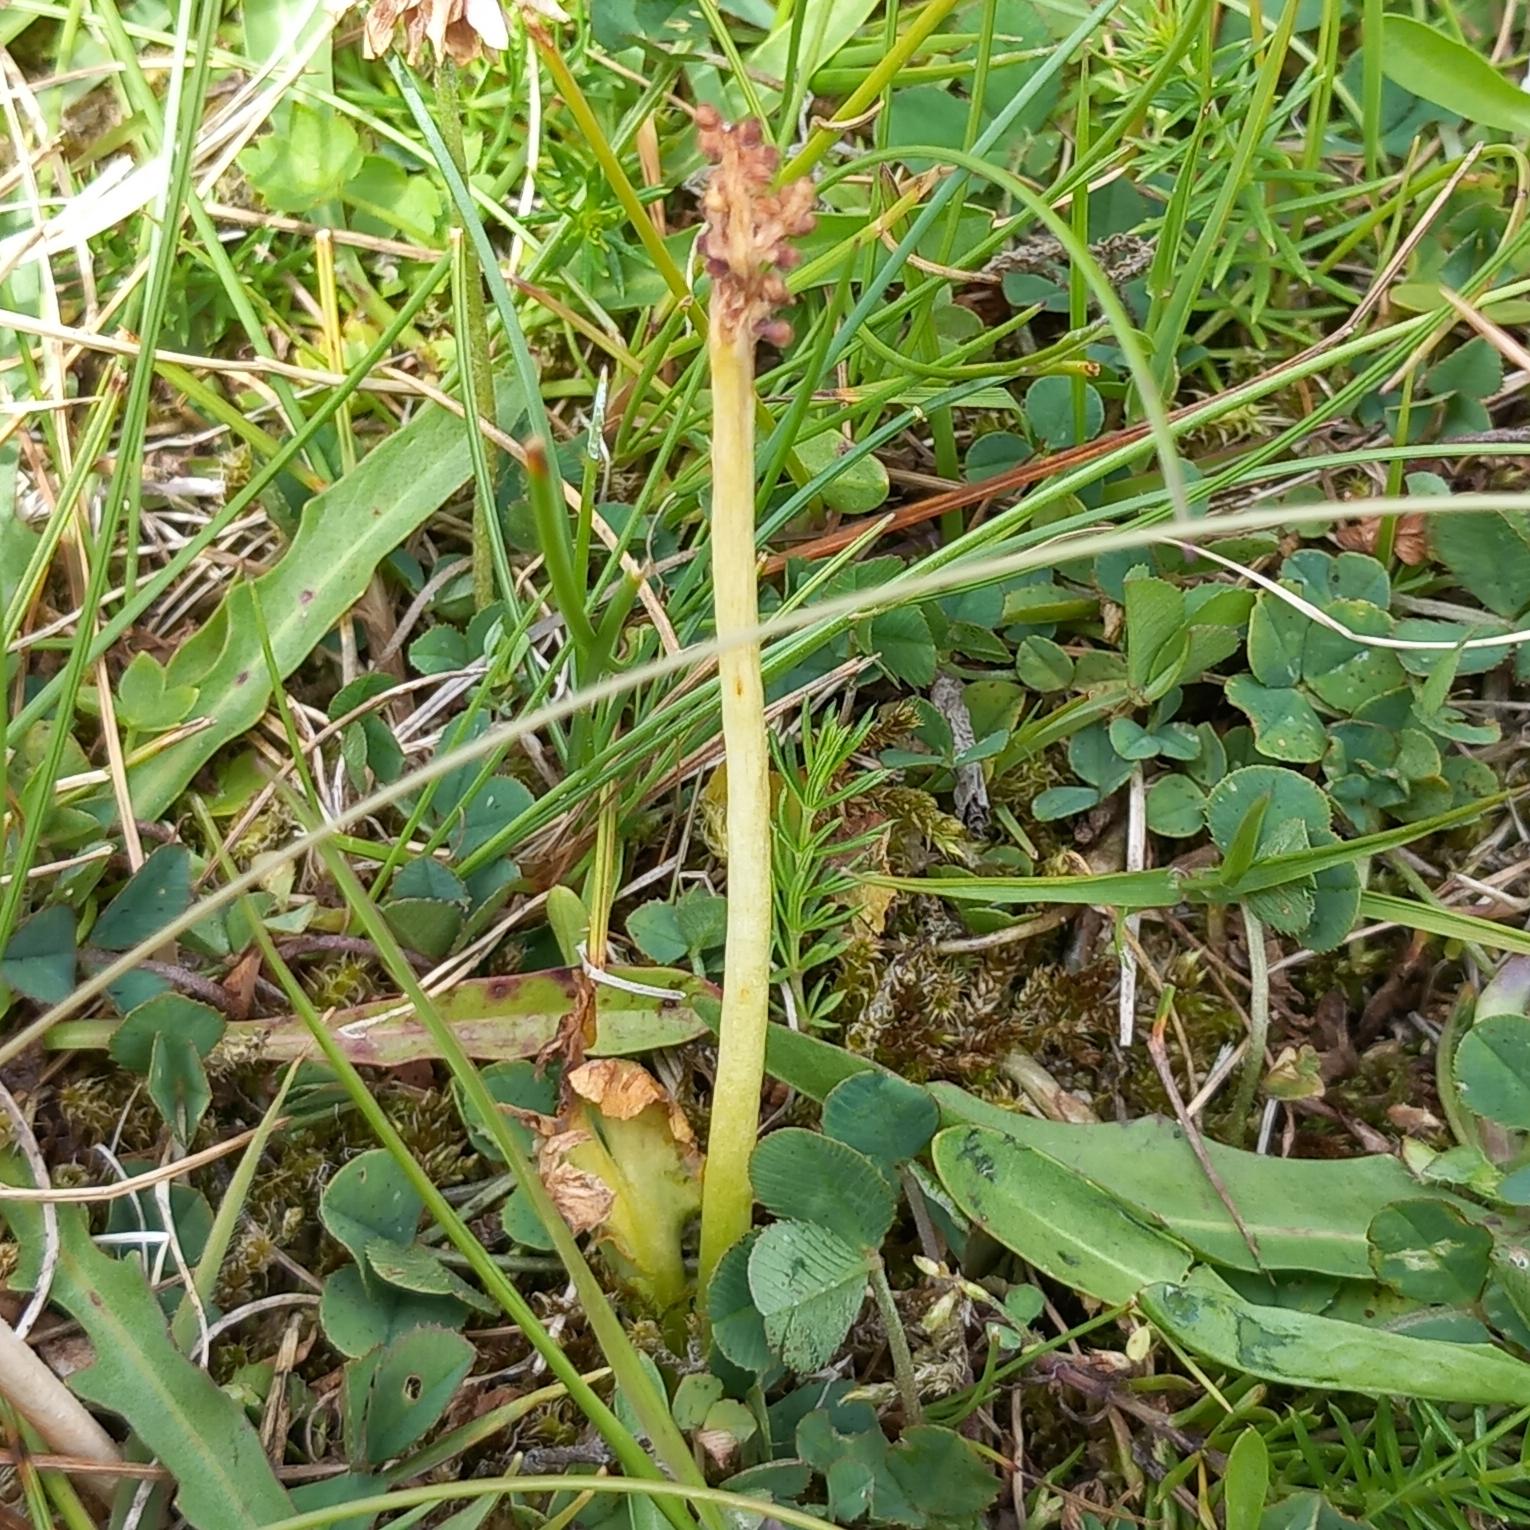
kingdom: Plantae
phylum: Tracheophyta
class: Polypodiopsida
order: Ophioglossales
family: Ophioglossaceae
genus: Botrychium
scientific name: Botrychium simplex
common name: Enkelt månerude
